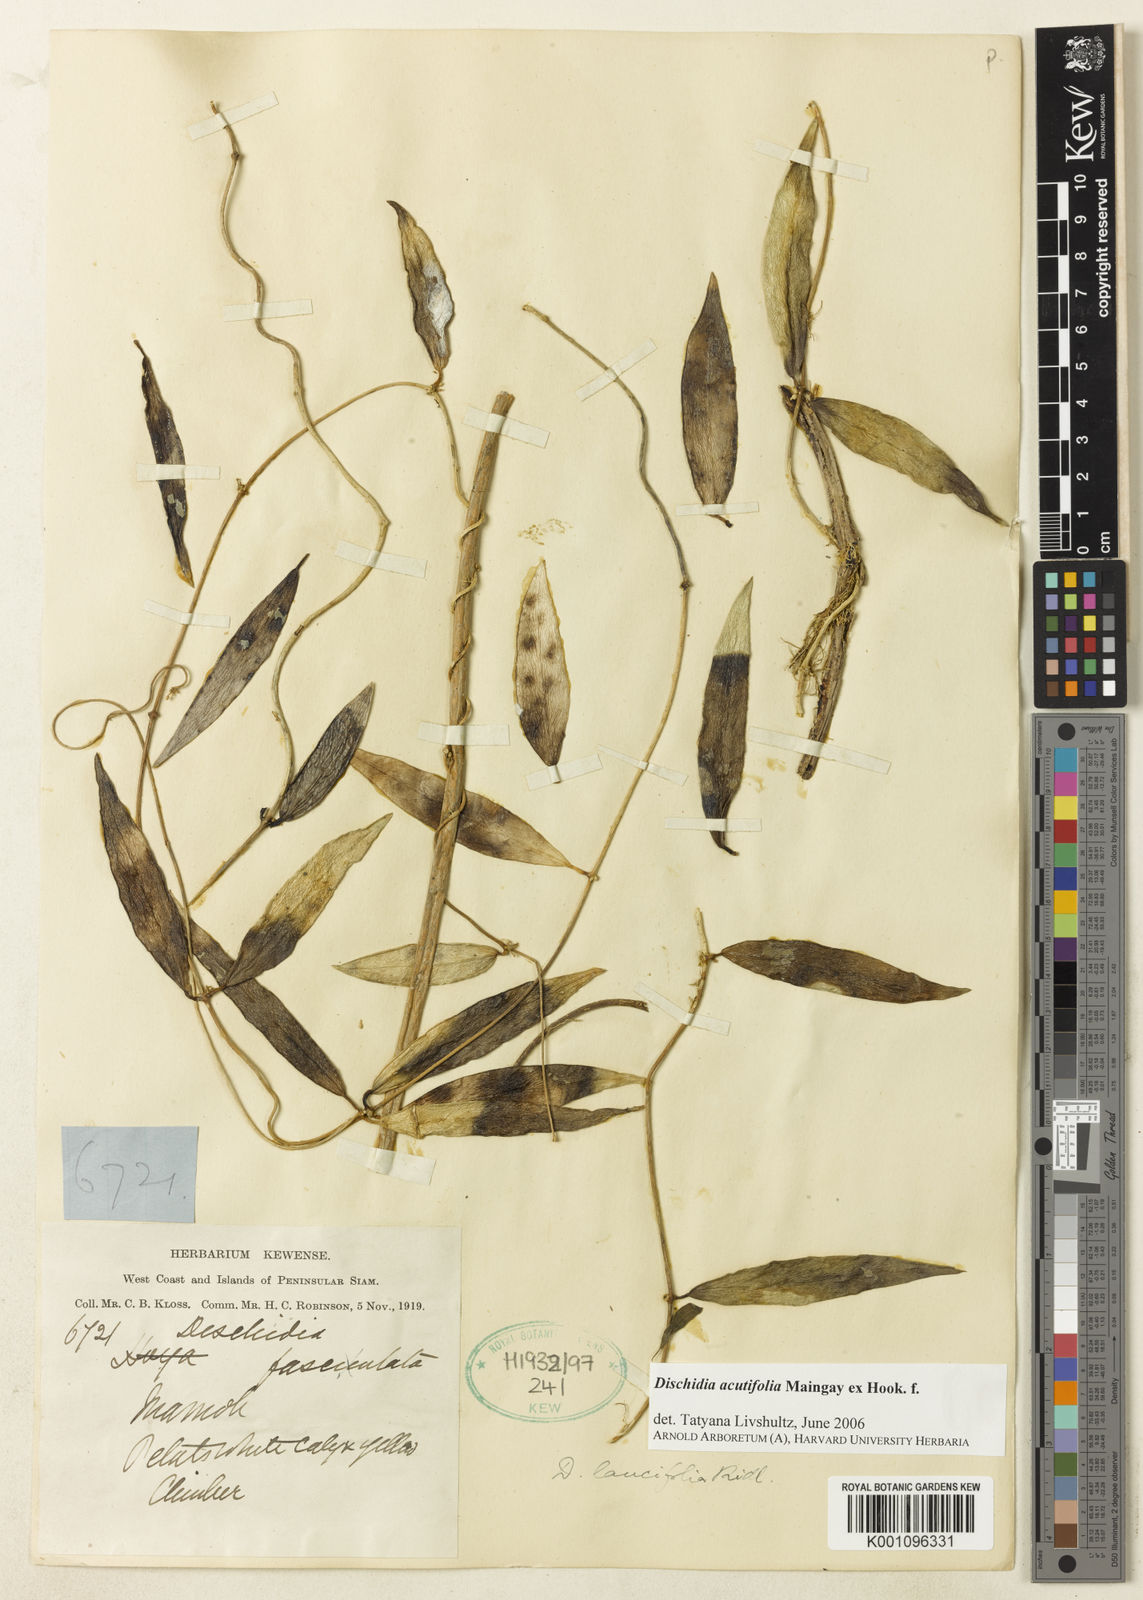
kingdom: Plantae
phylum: Tracheophyta
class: Magnoliopsida
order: Gentianales
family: Apocynaceae
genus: Dischidia
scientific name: Dischidia acutifolia
